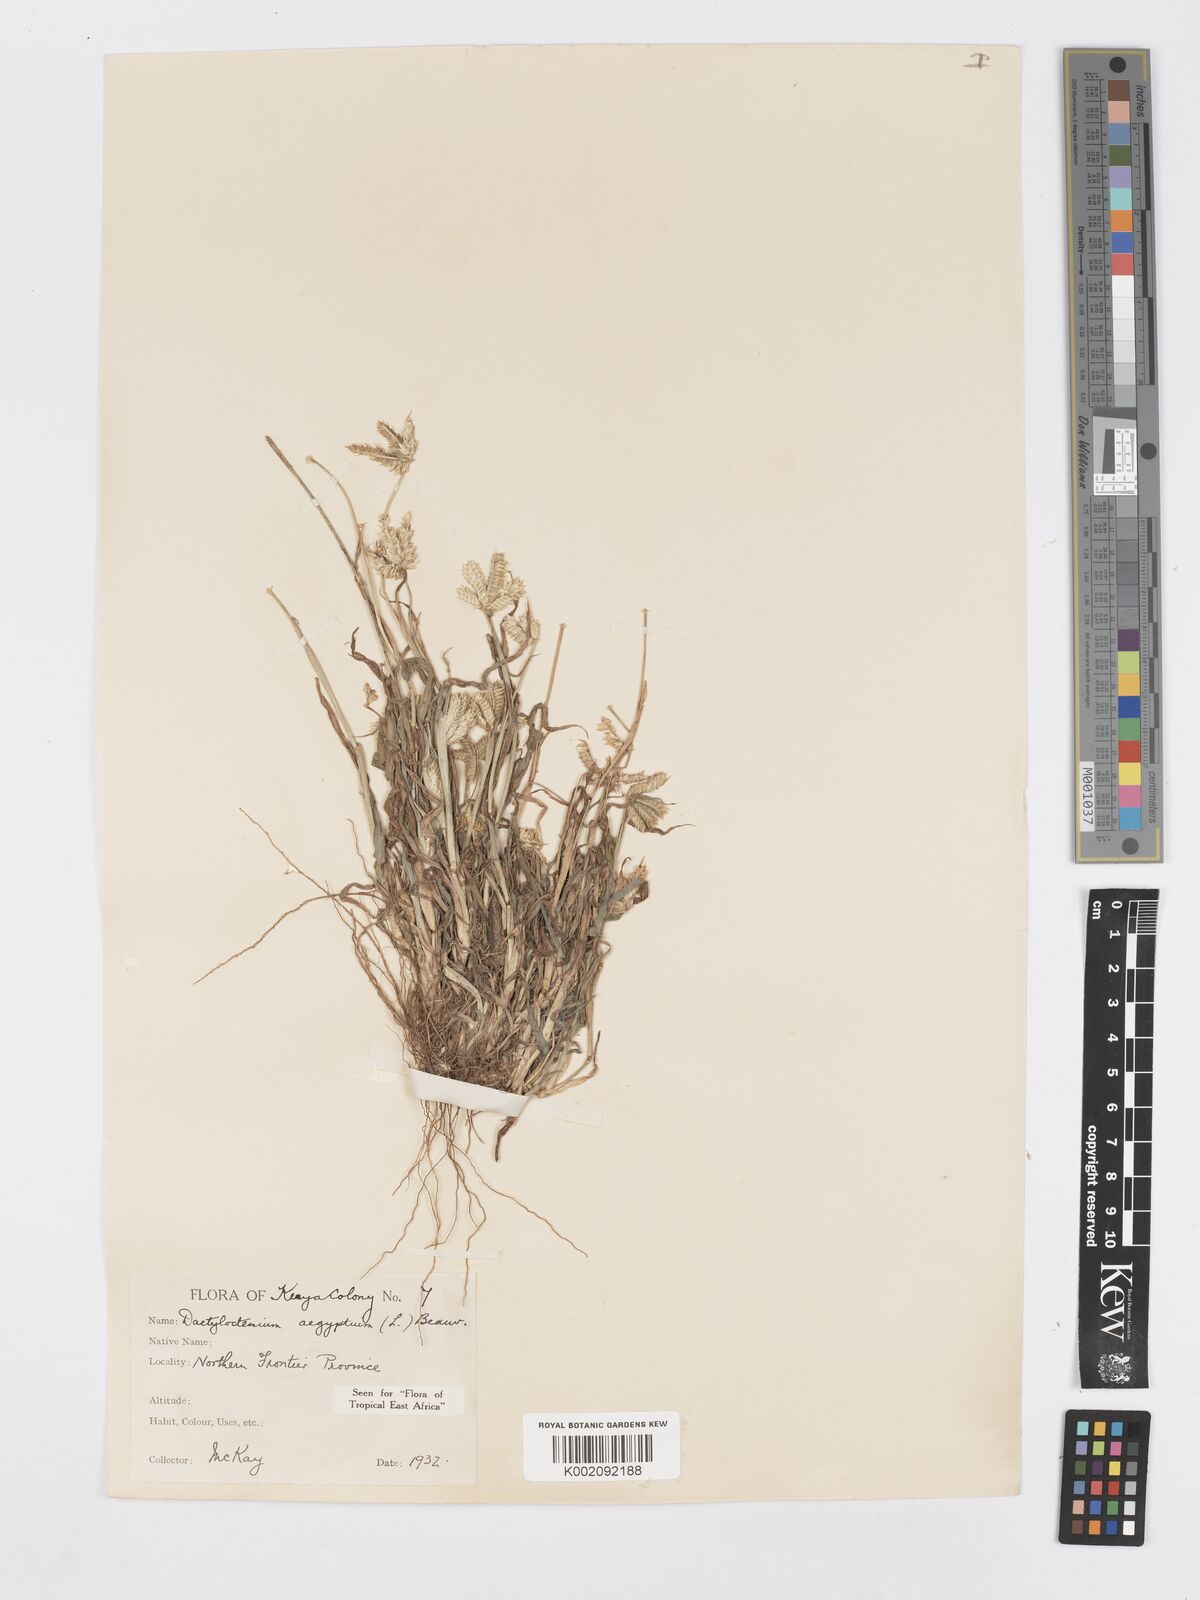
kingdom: Plantae
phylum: Tracheophyta
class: Liliopsida
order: Poales
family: Poaceae
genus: Dactyloctenium
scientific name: Dactyloctenium aegyptium
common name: Egyptian grass
